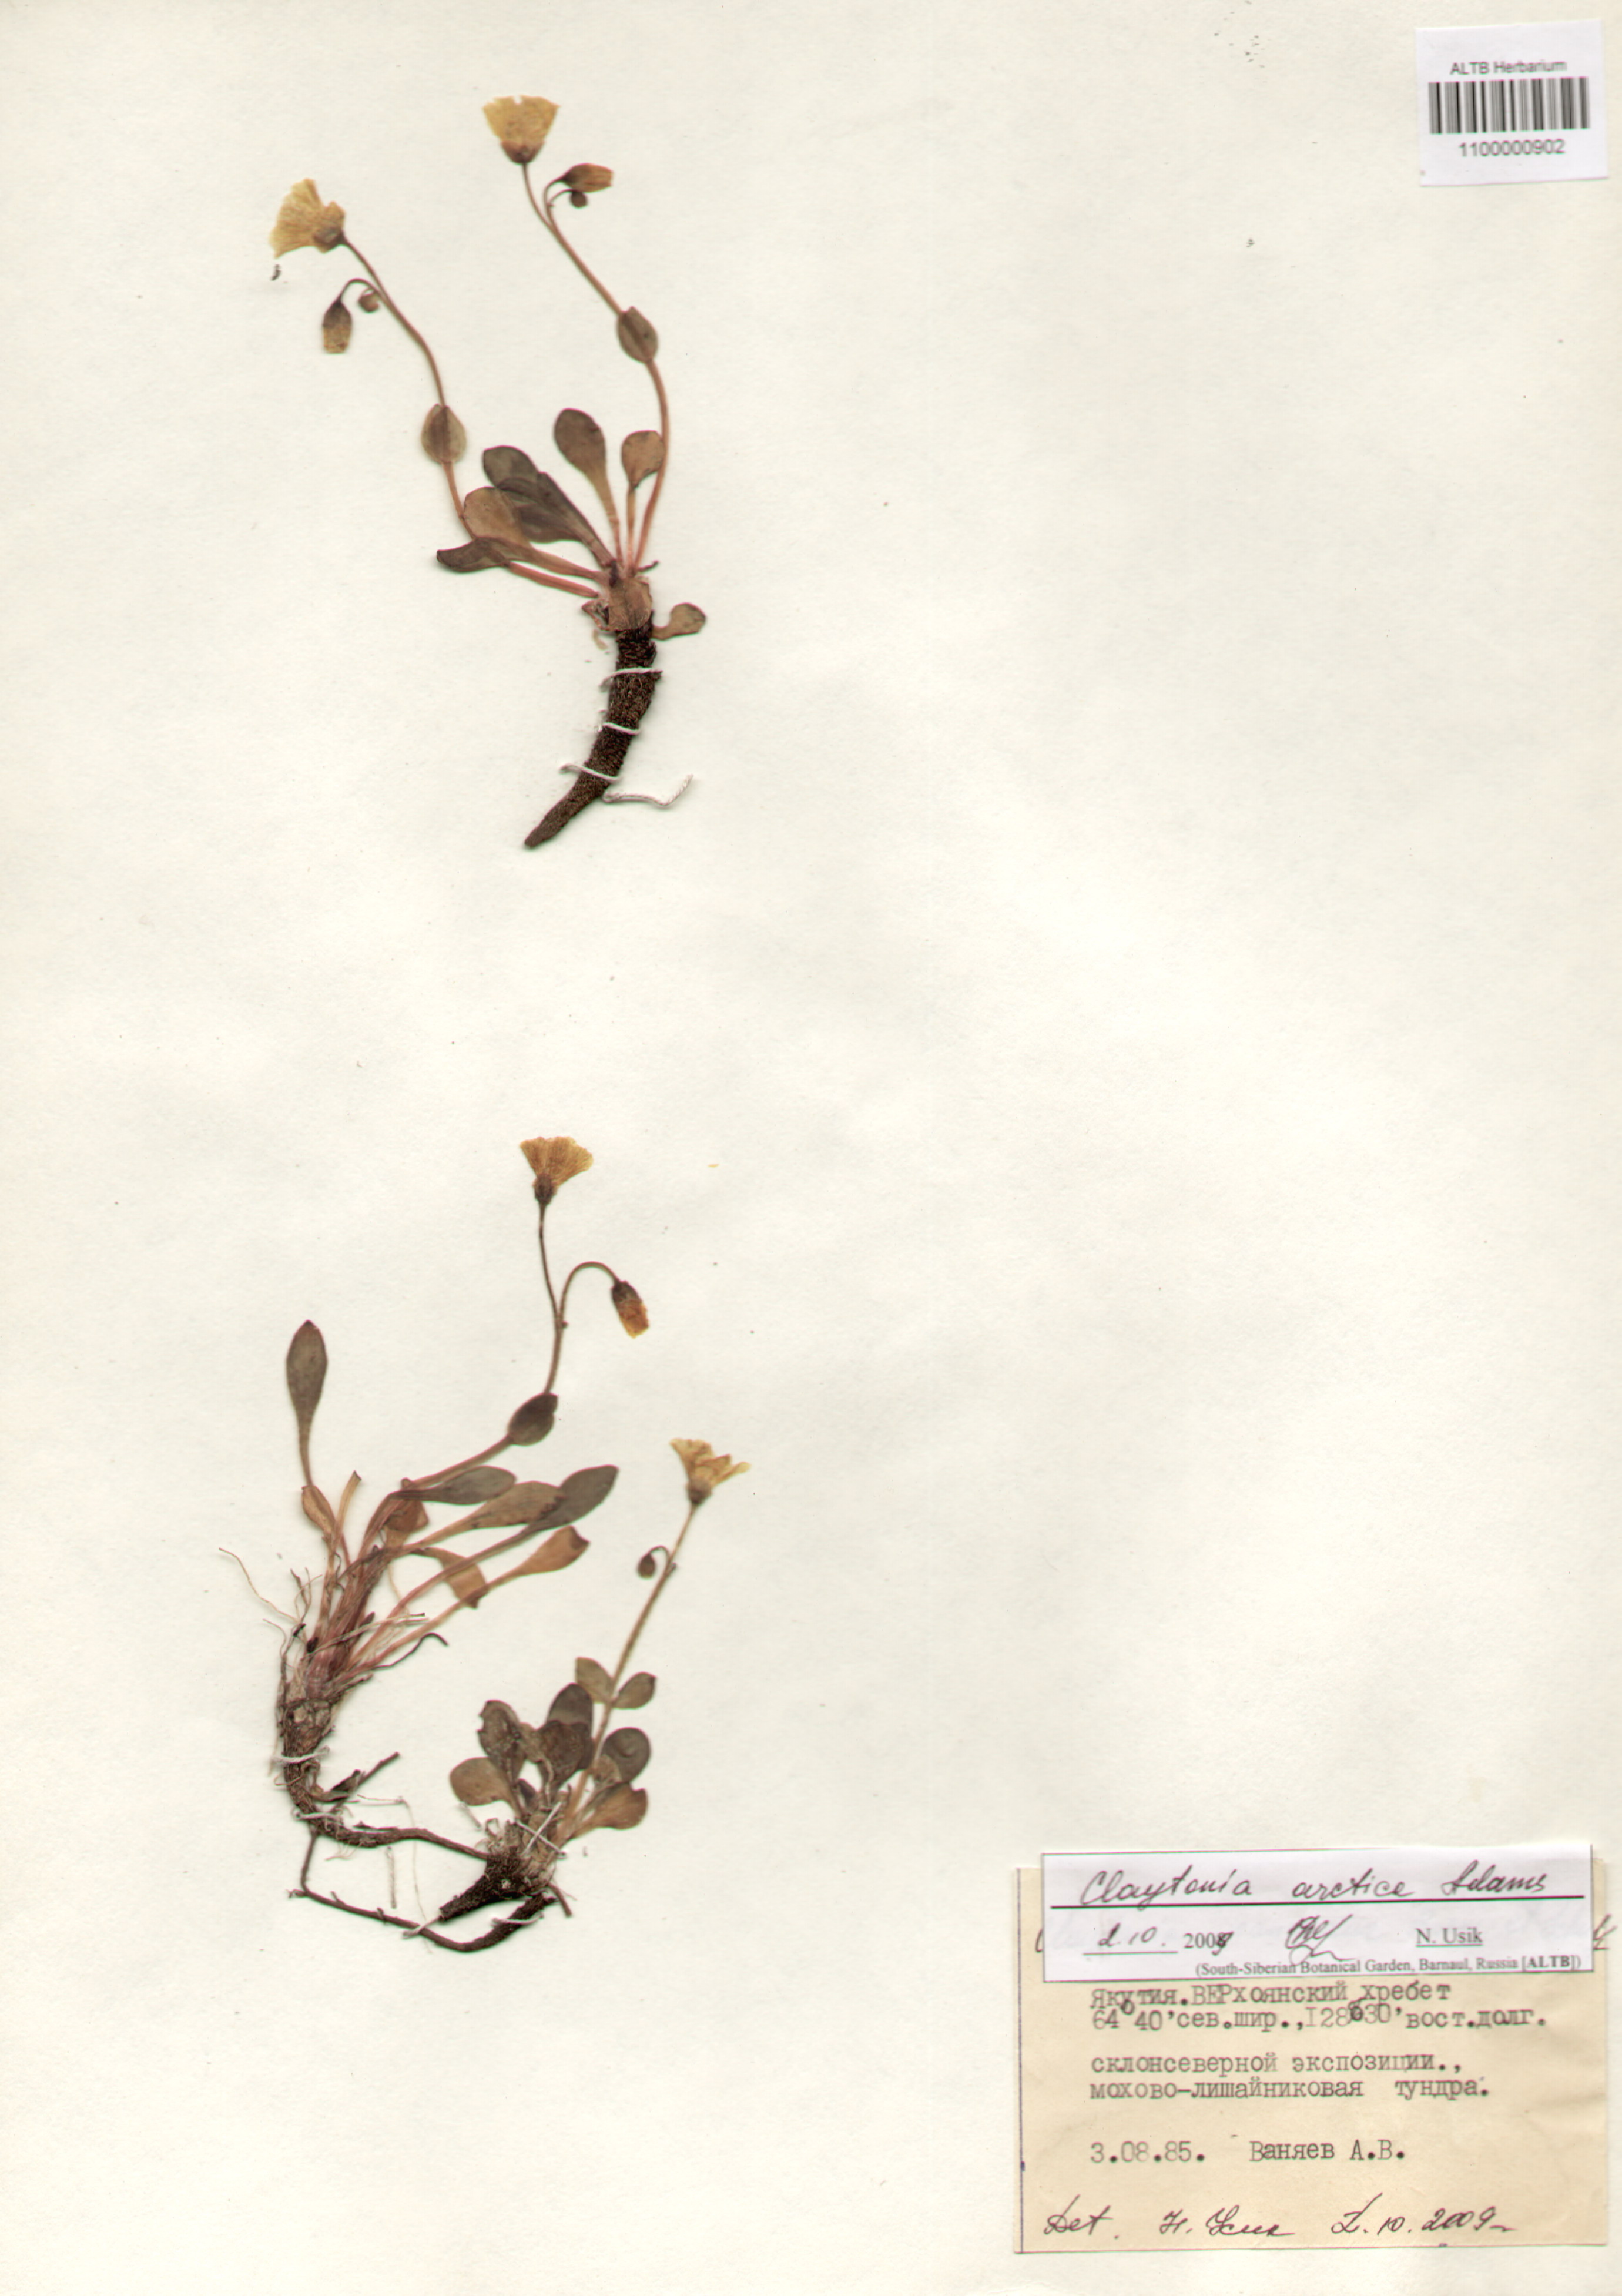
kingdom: Plantae
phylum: Tracheophyta
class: Magnoliopsida
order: Caryophyllales
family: Montiaceae
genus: Claytonia
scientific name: Claytonia arctica
